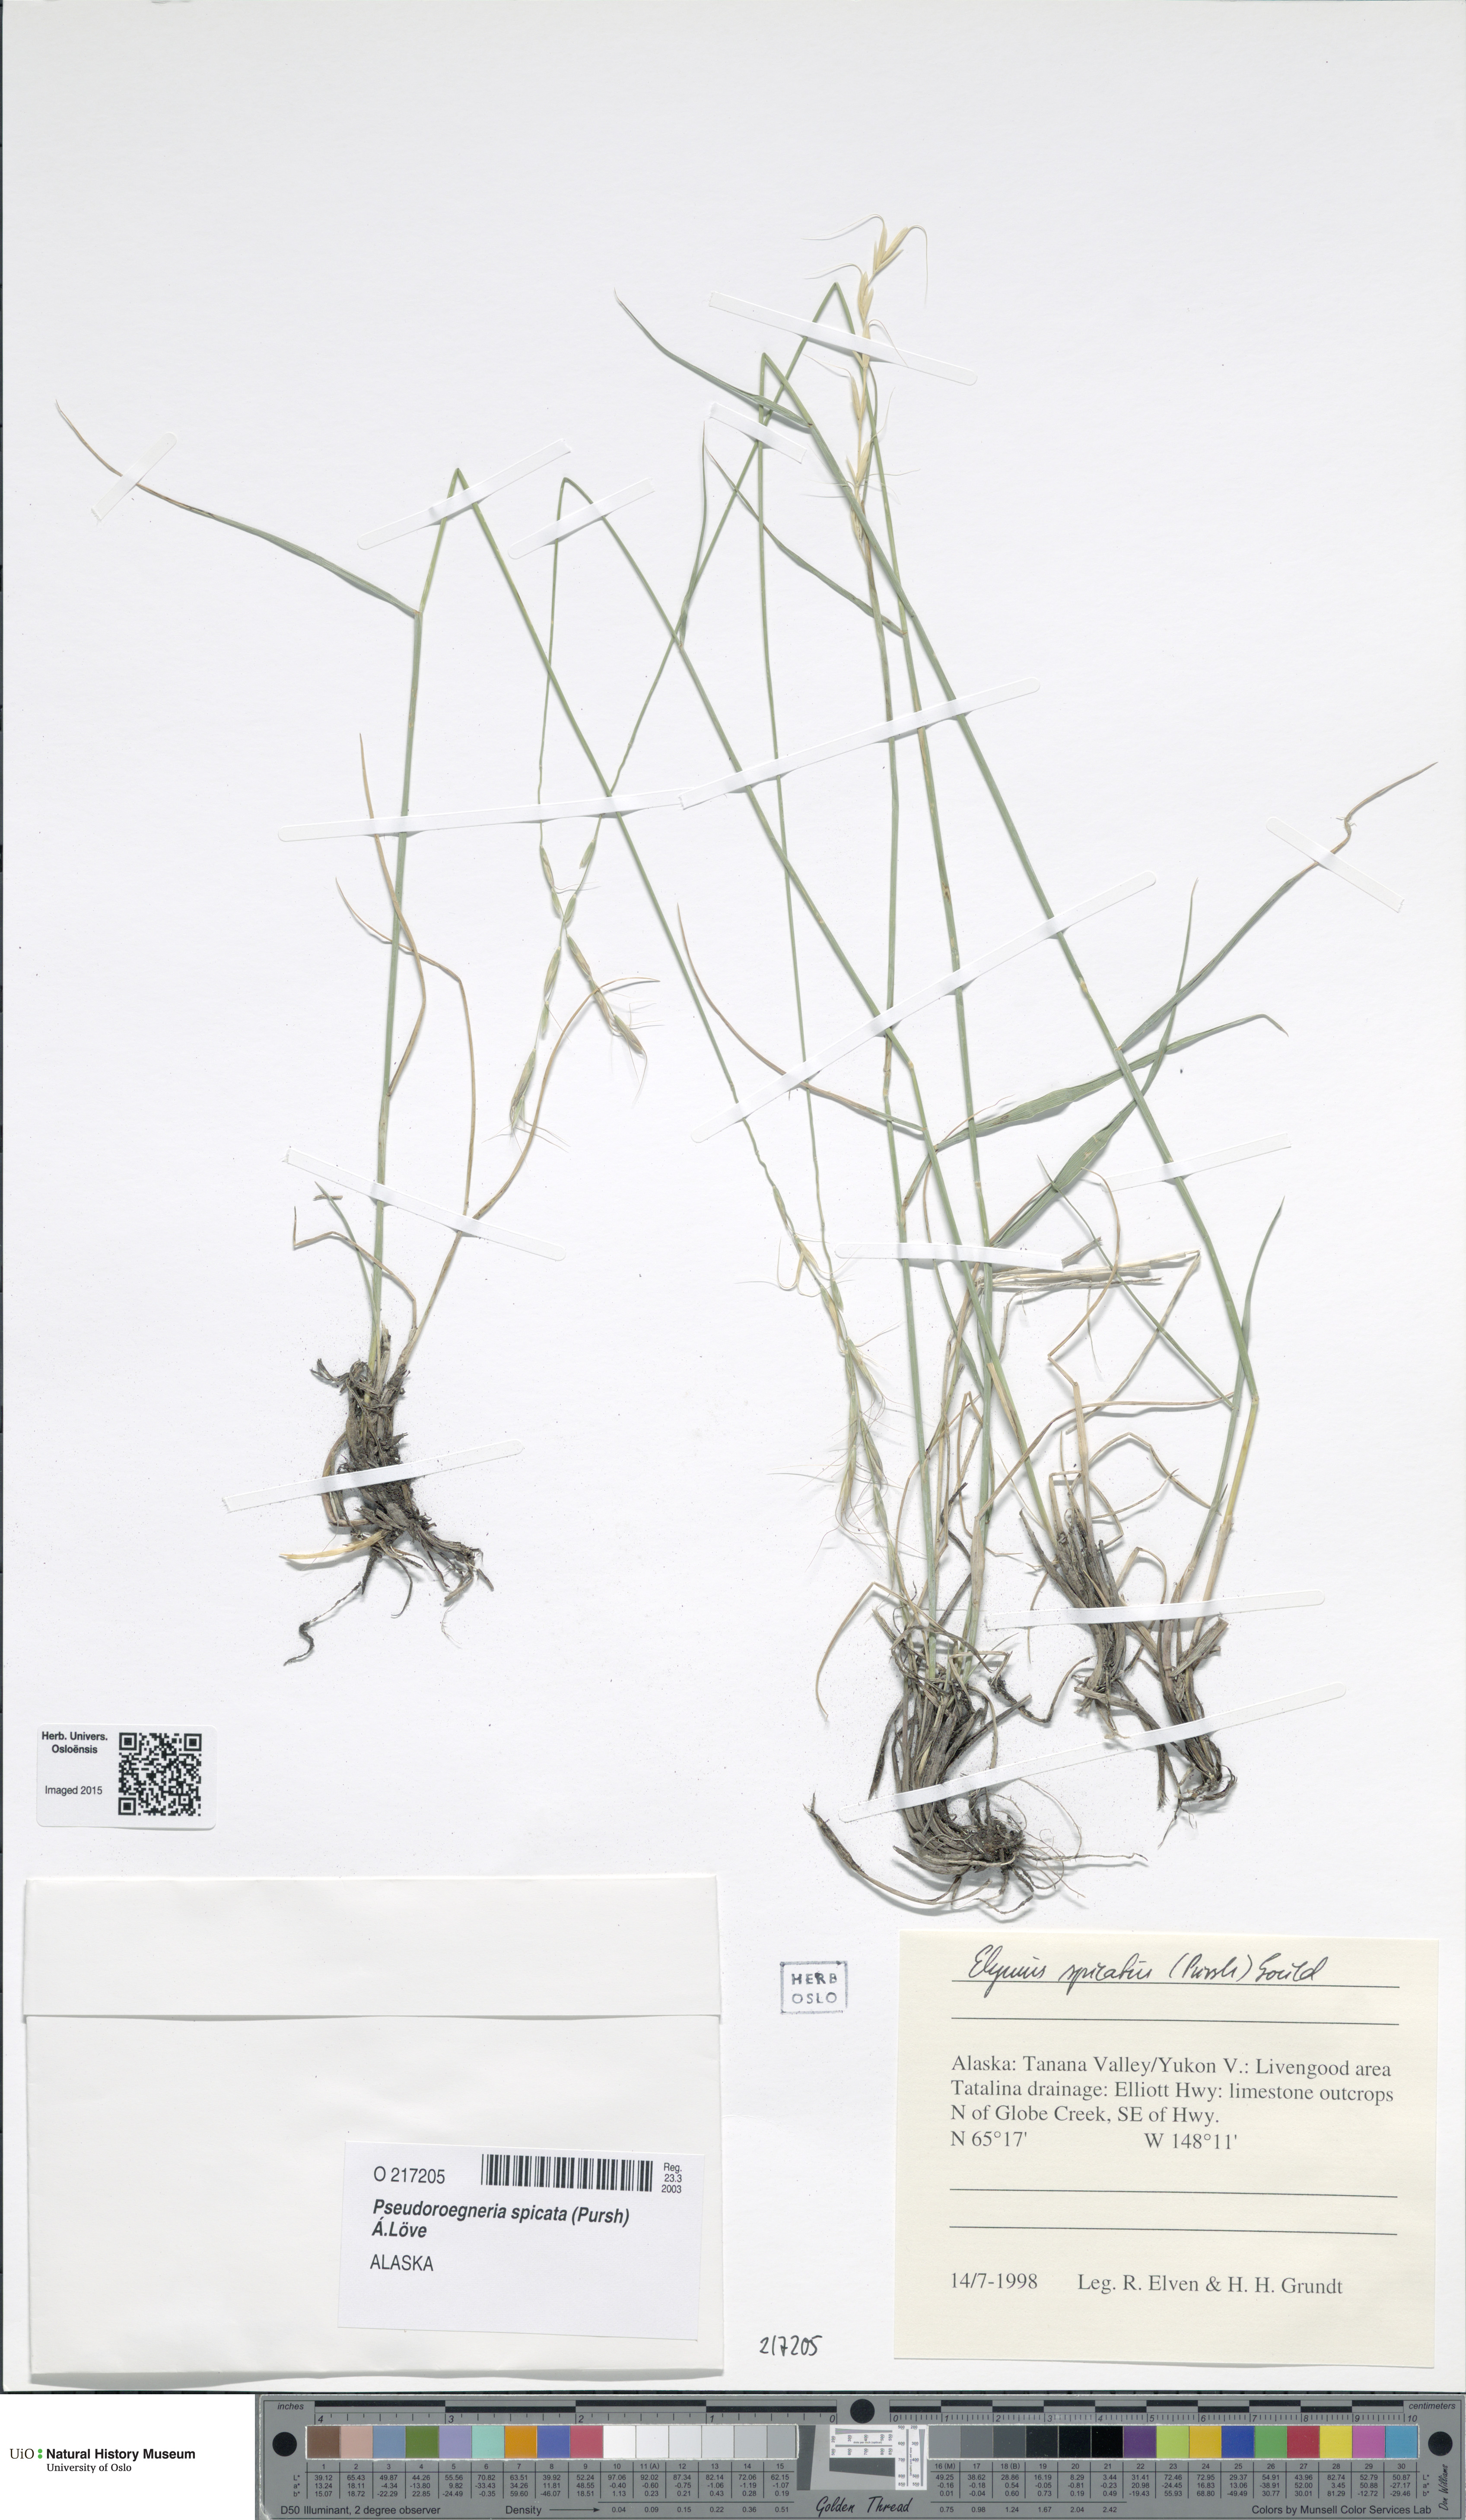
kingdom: Plantae
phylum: Tracheophyta
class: Liliopsida
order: Poales
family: Poaceae
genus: Pseudoroegneria
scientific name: Pseudoroegneria spicata
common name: Bluebunch wheatgrass
